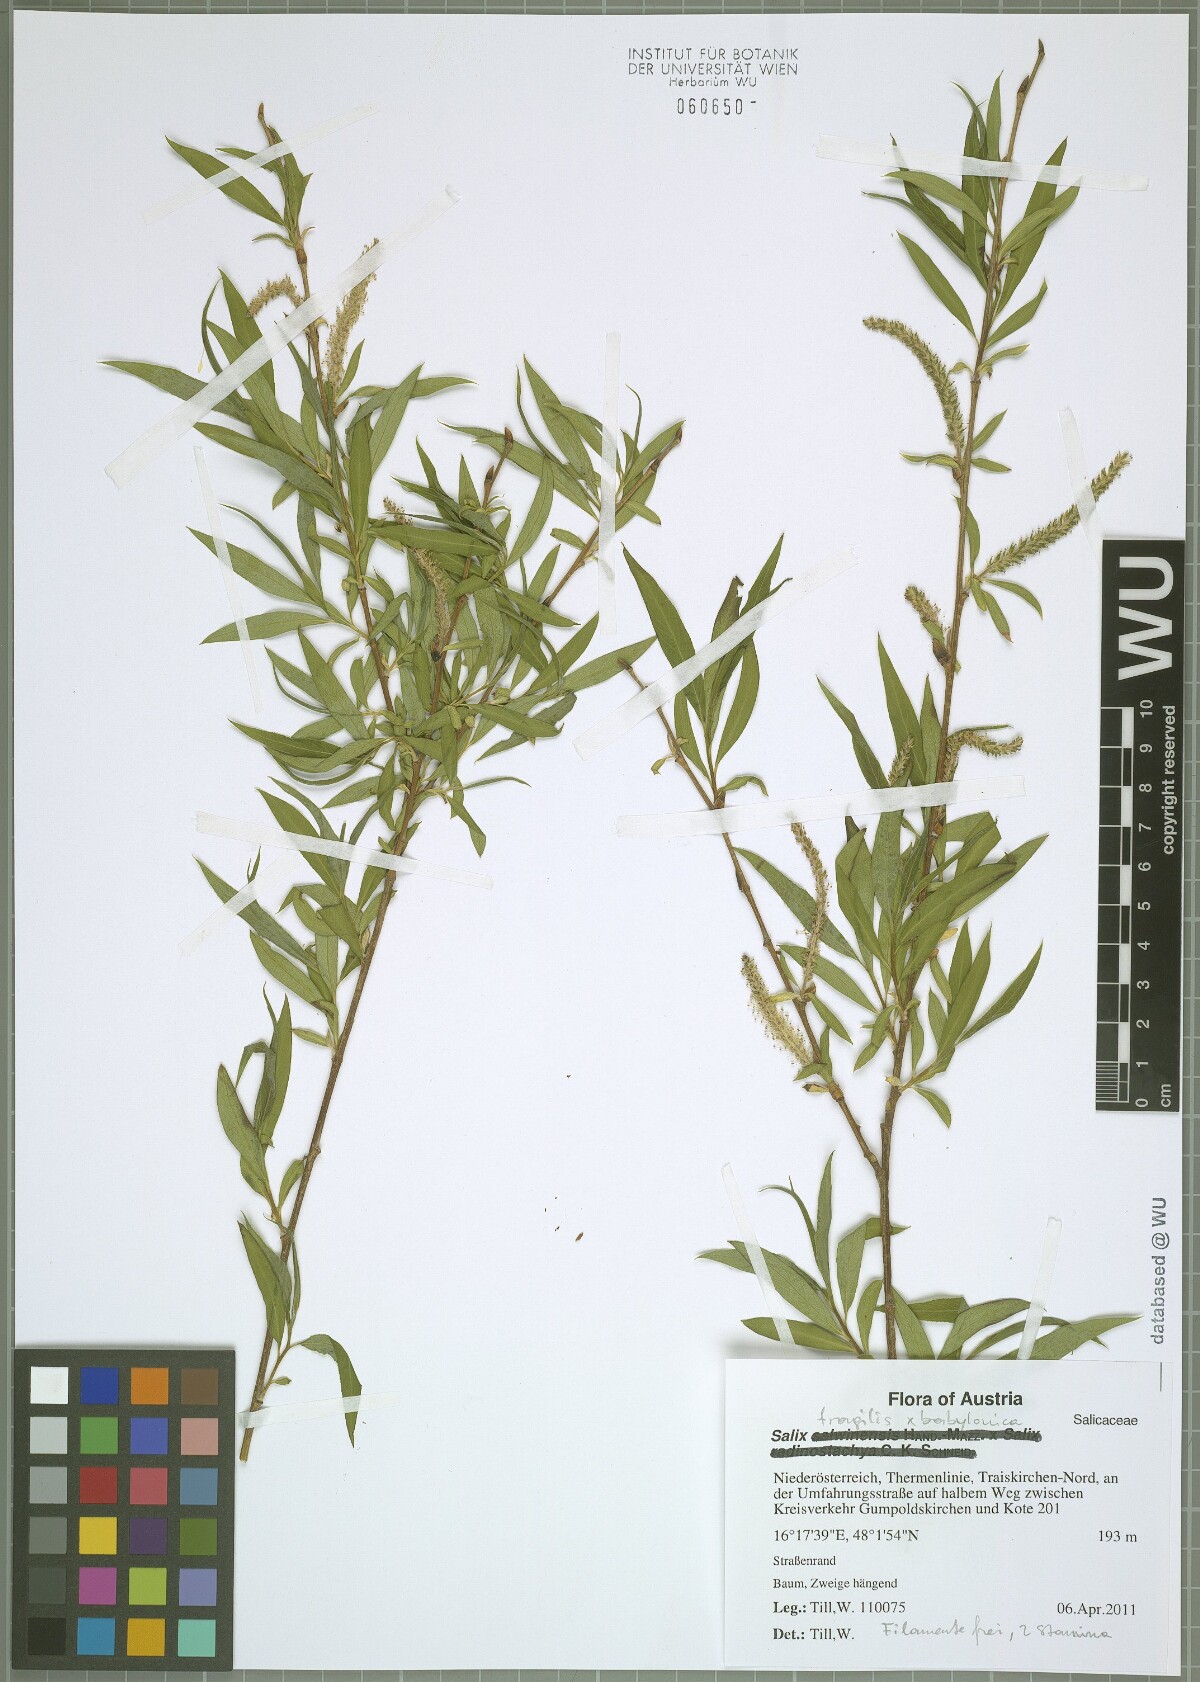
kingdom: Plantae
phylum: Tracheophyta
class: Magnoliopsida
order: Malpighiales
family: Salicaceae
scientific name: Salicaceae
